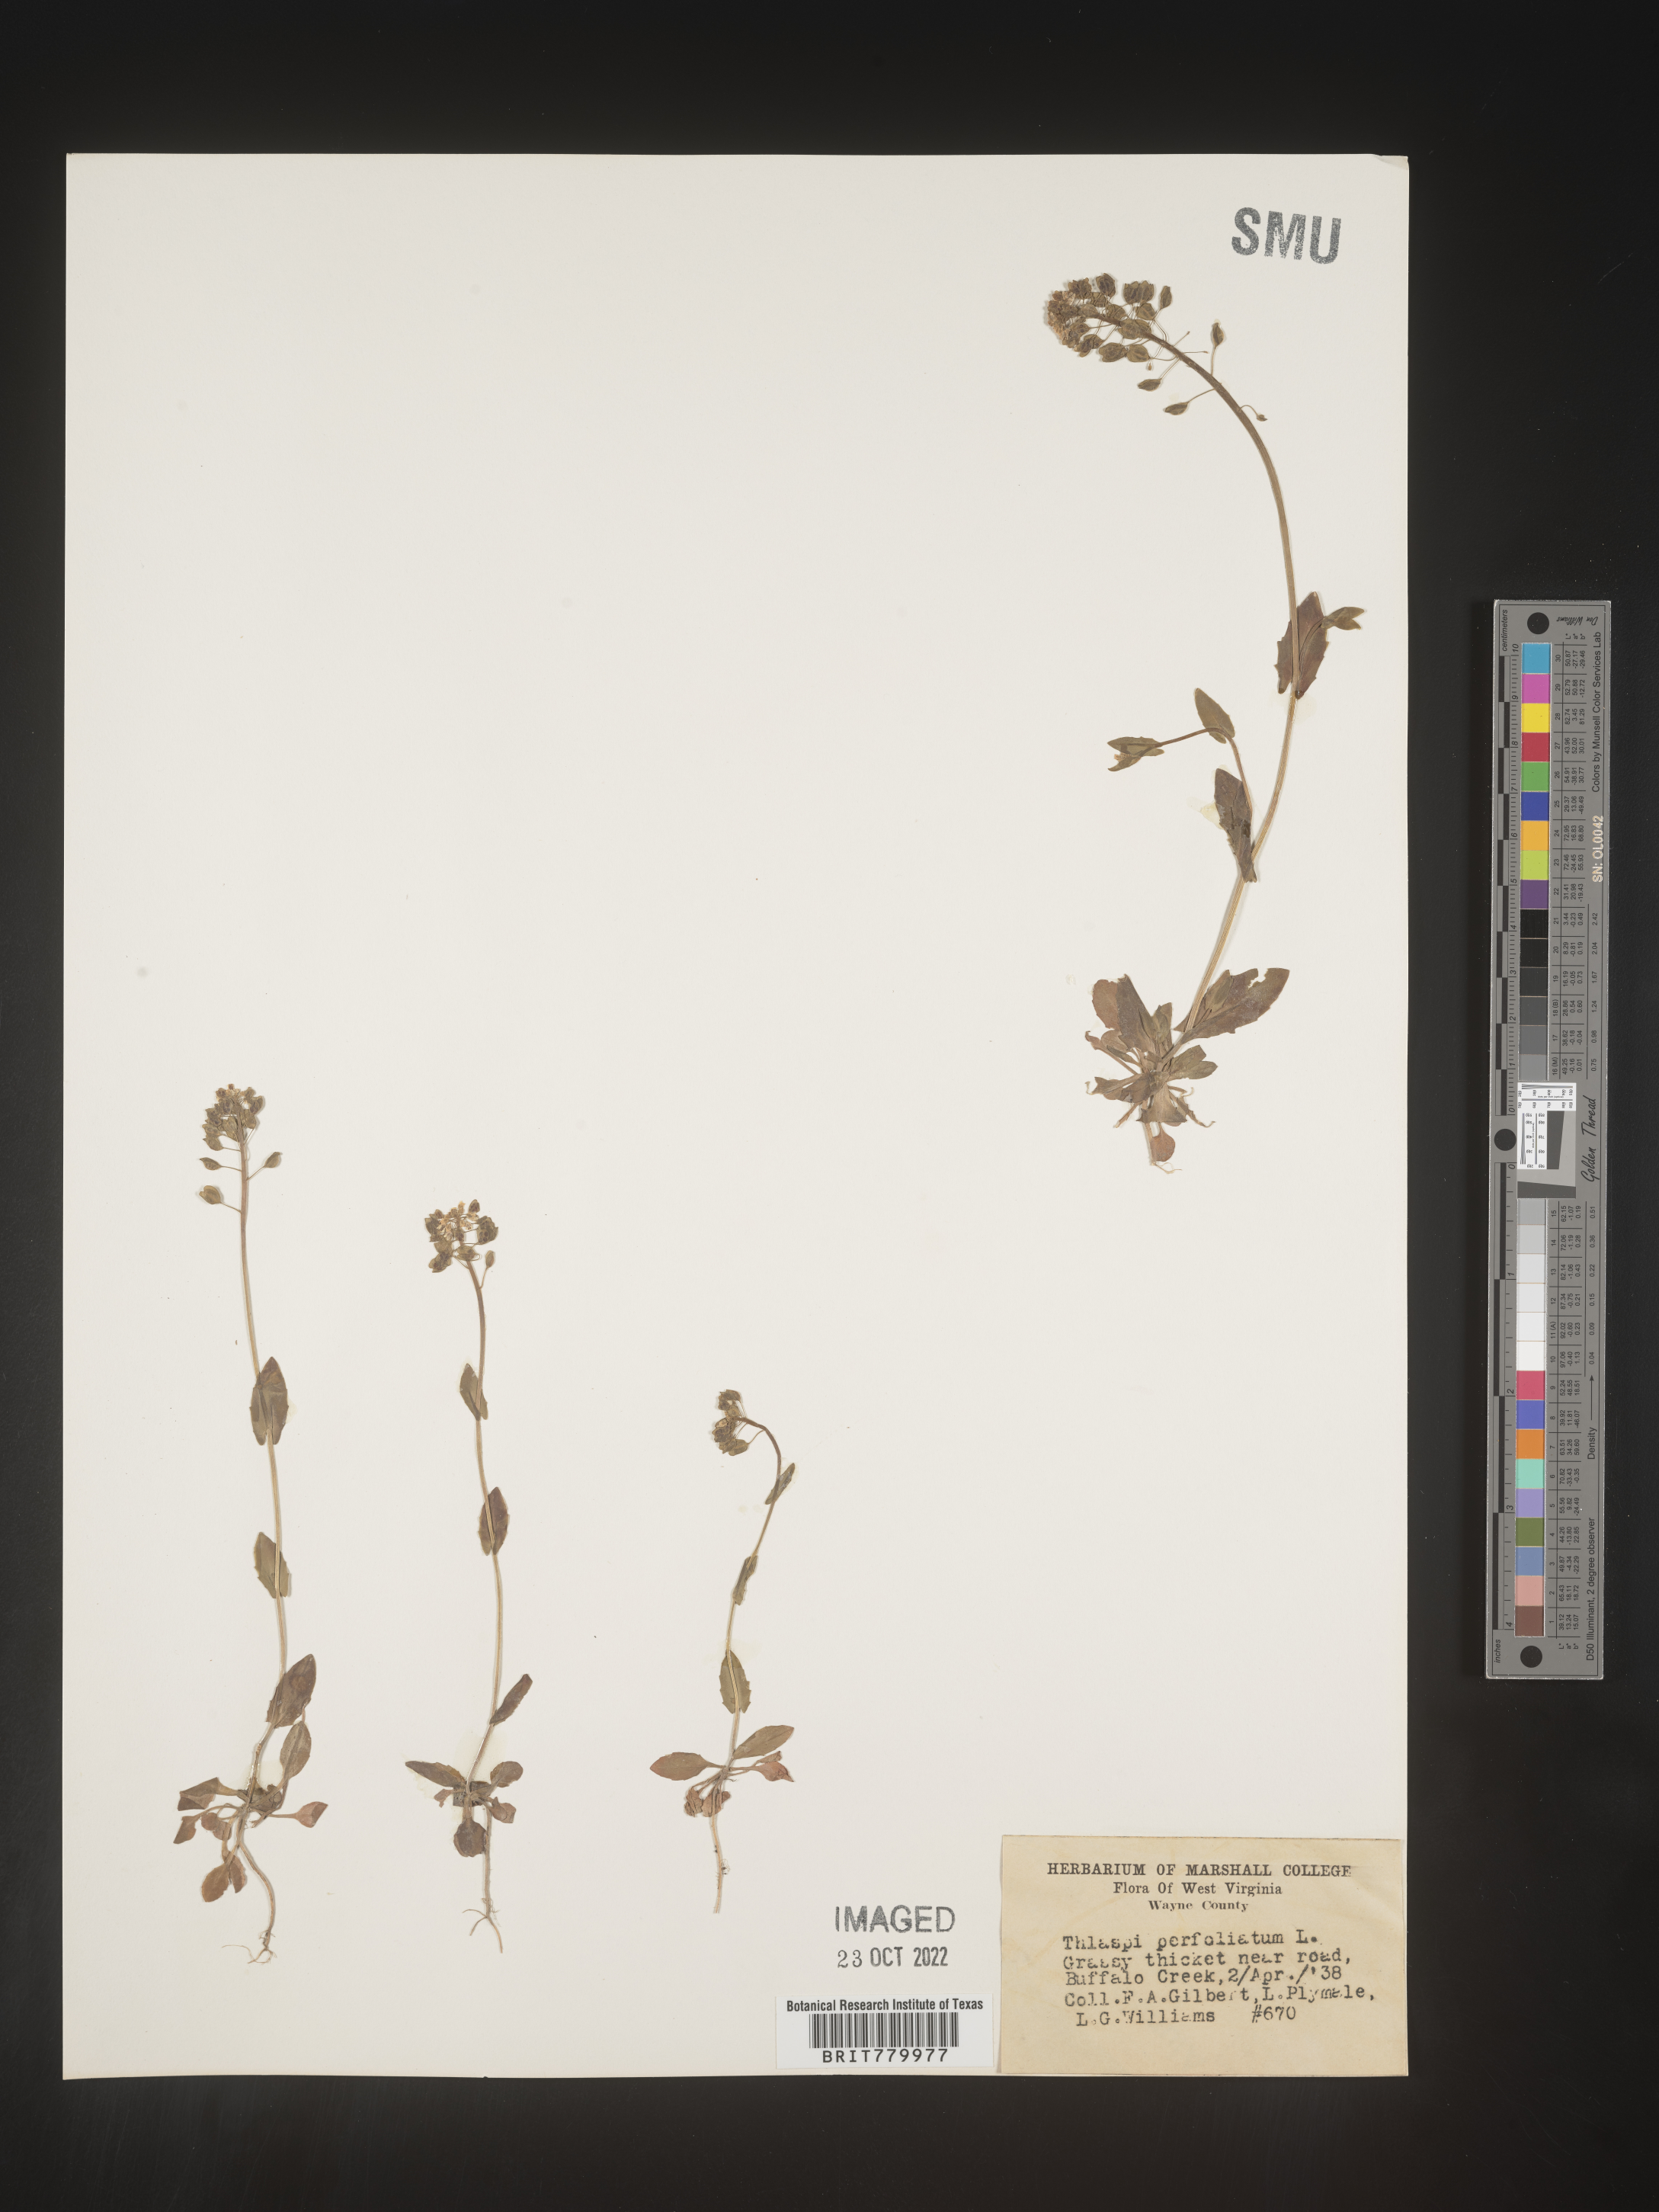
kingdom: Plantae
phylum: Tracheophyta
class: Magnoliopsida
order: Brassicales
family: Brassicaceae
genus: Thlaspi
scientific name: Thlaspi
